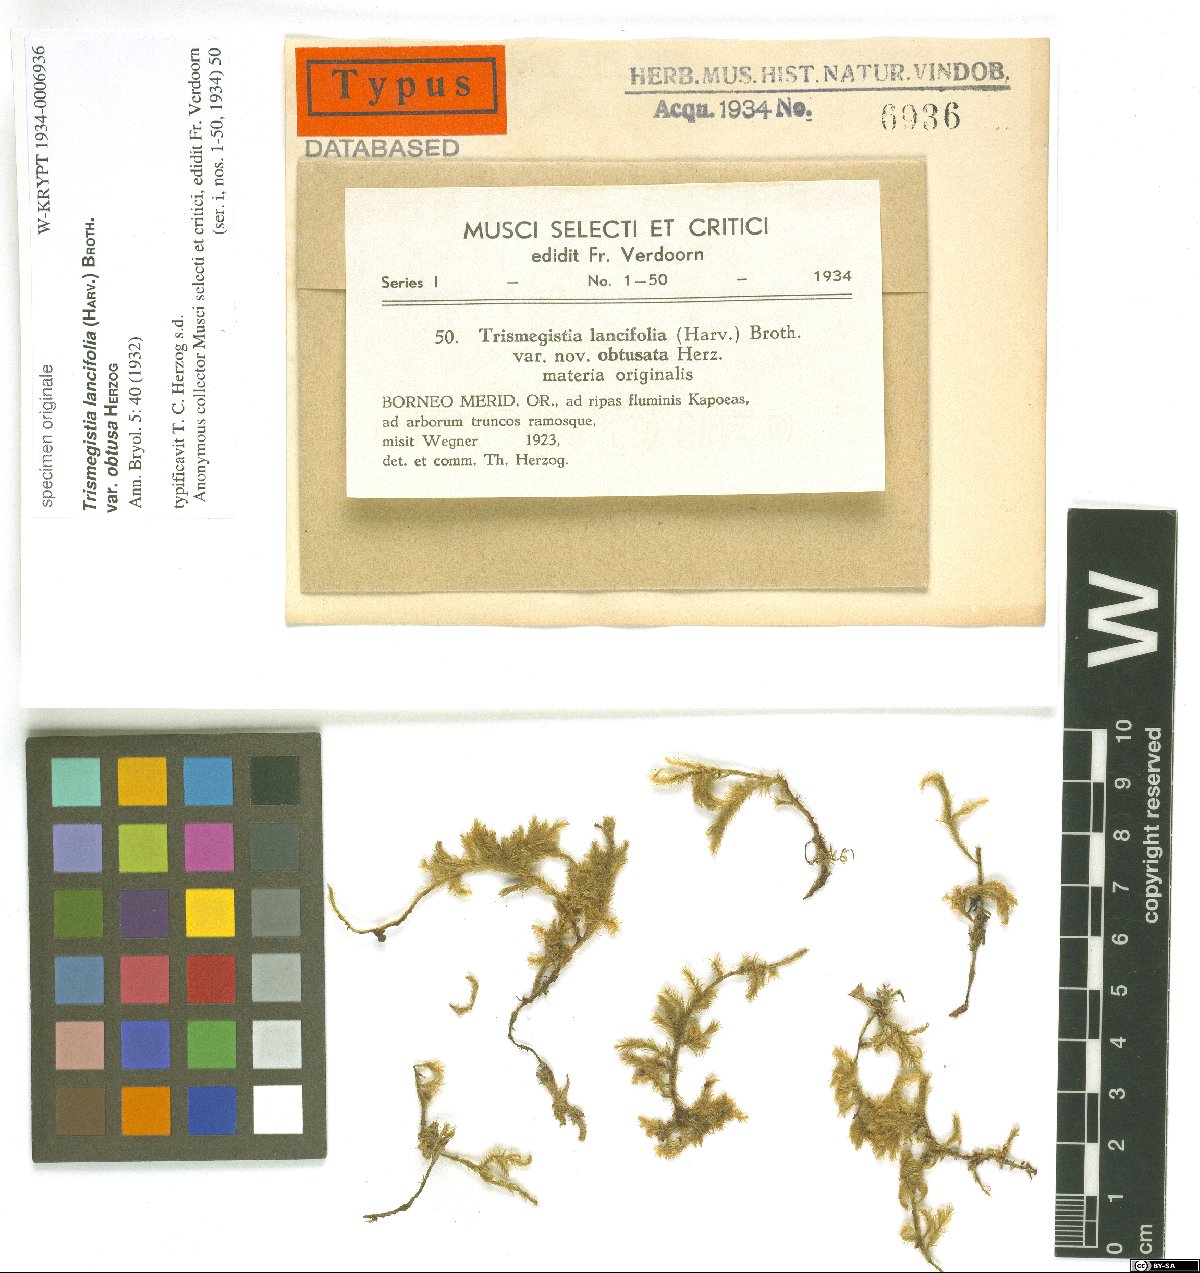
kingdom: Plantae
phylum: Bryophyta
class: Bryopsida
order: Hypnales
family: Pylaisiadelphaceae
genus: Trismegistia
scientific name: Trismegistia lancifolia
